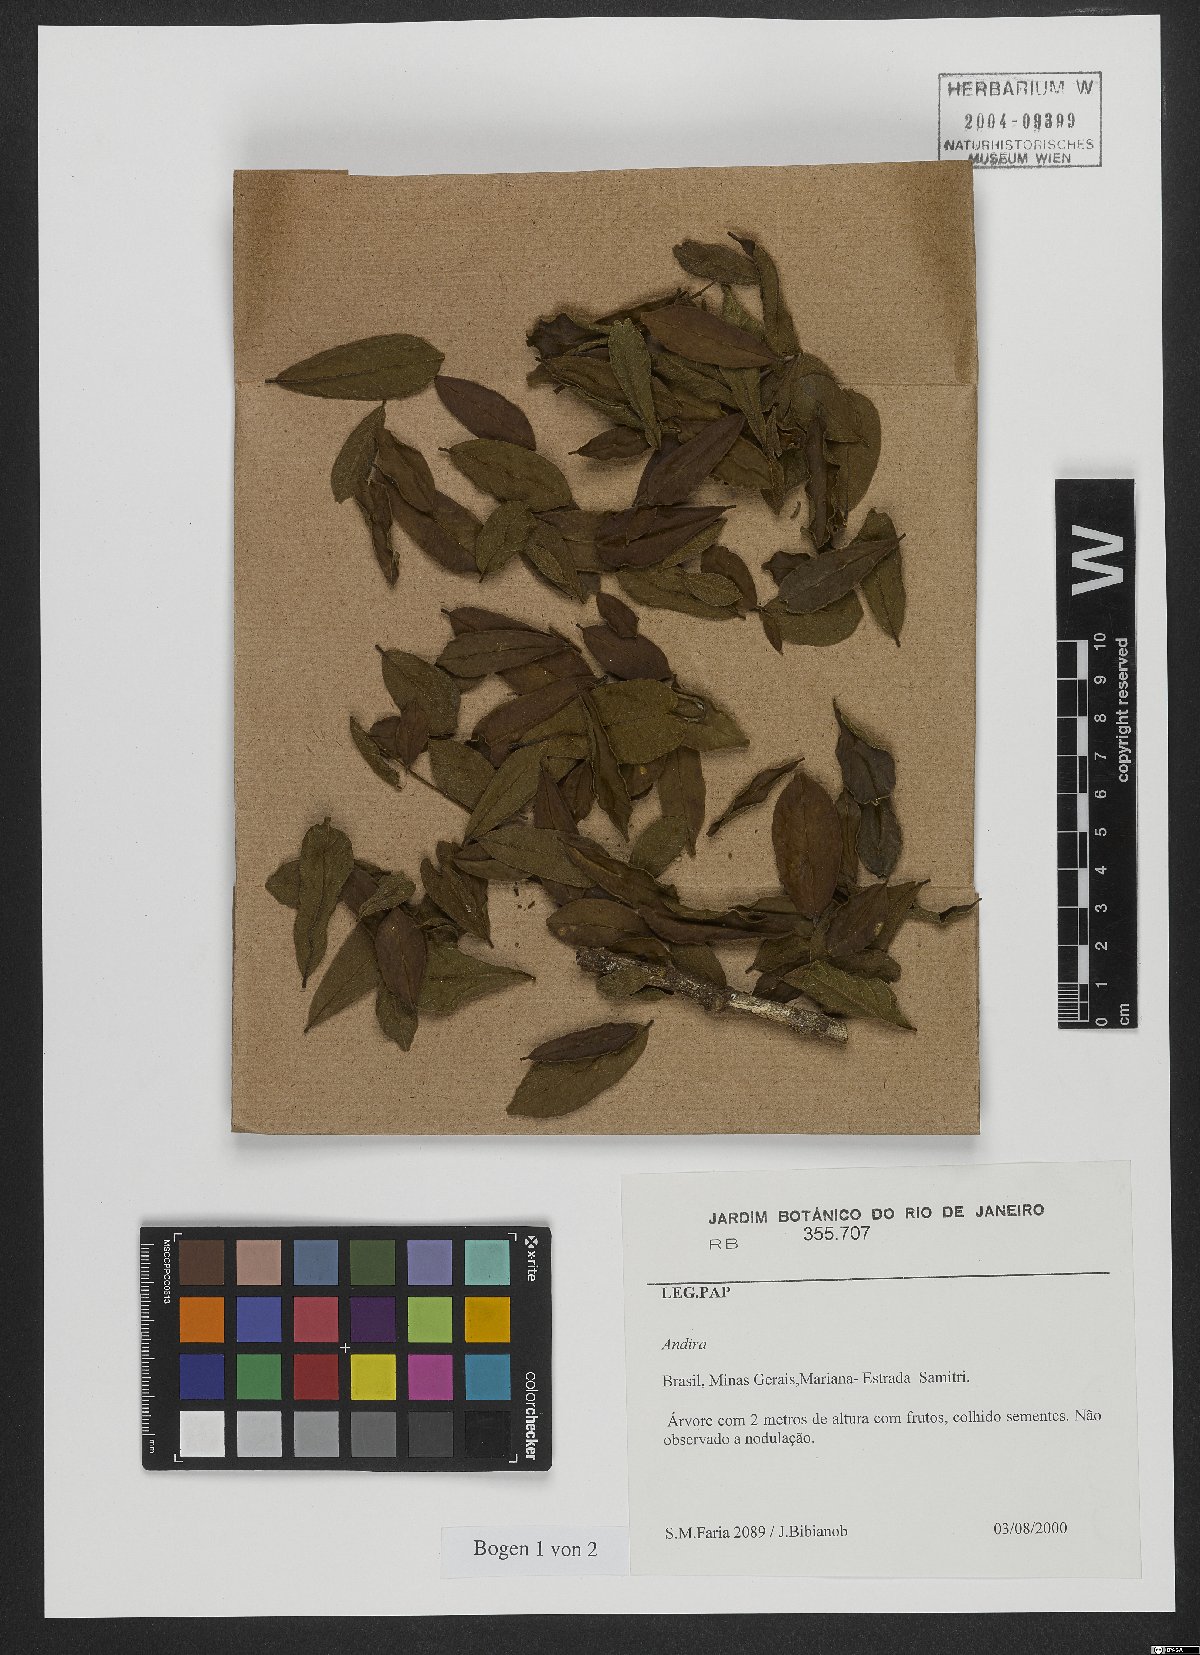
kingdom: Plantae
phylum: Tracheophyta
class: Magnoliopsida
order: Fabales
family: Fabaceae
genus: Andira
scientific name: Andira
